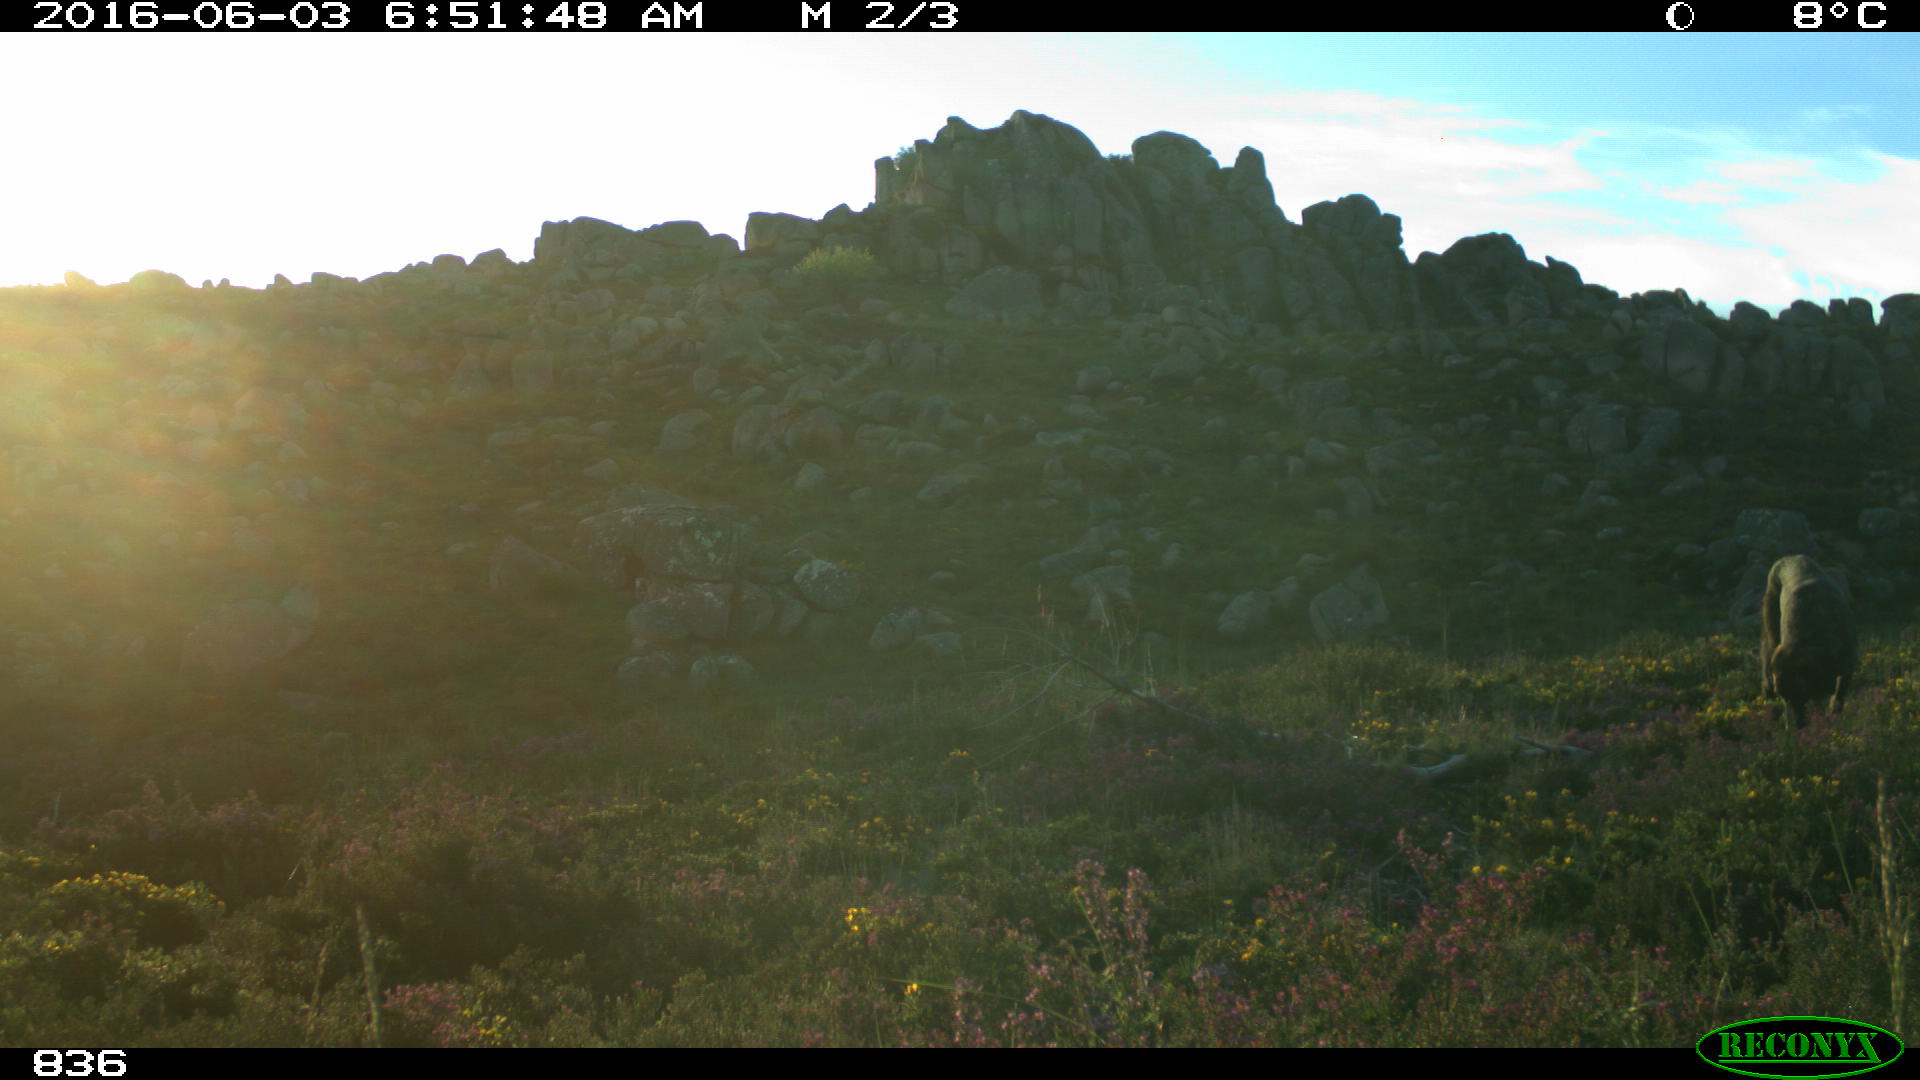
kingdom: Animalia
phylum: Chordata
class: Mammalia
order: Carnivora
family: Canidae
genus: Canis
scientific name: Canis lupus
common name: Gray wolf
